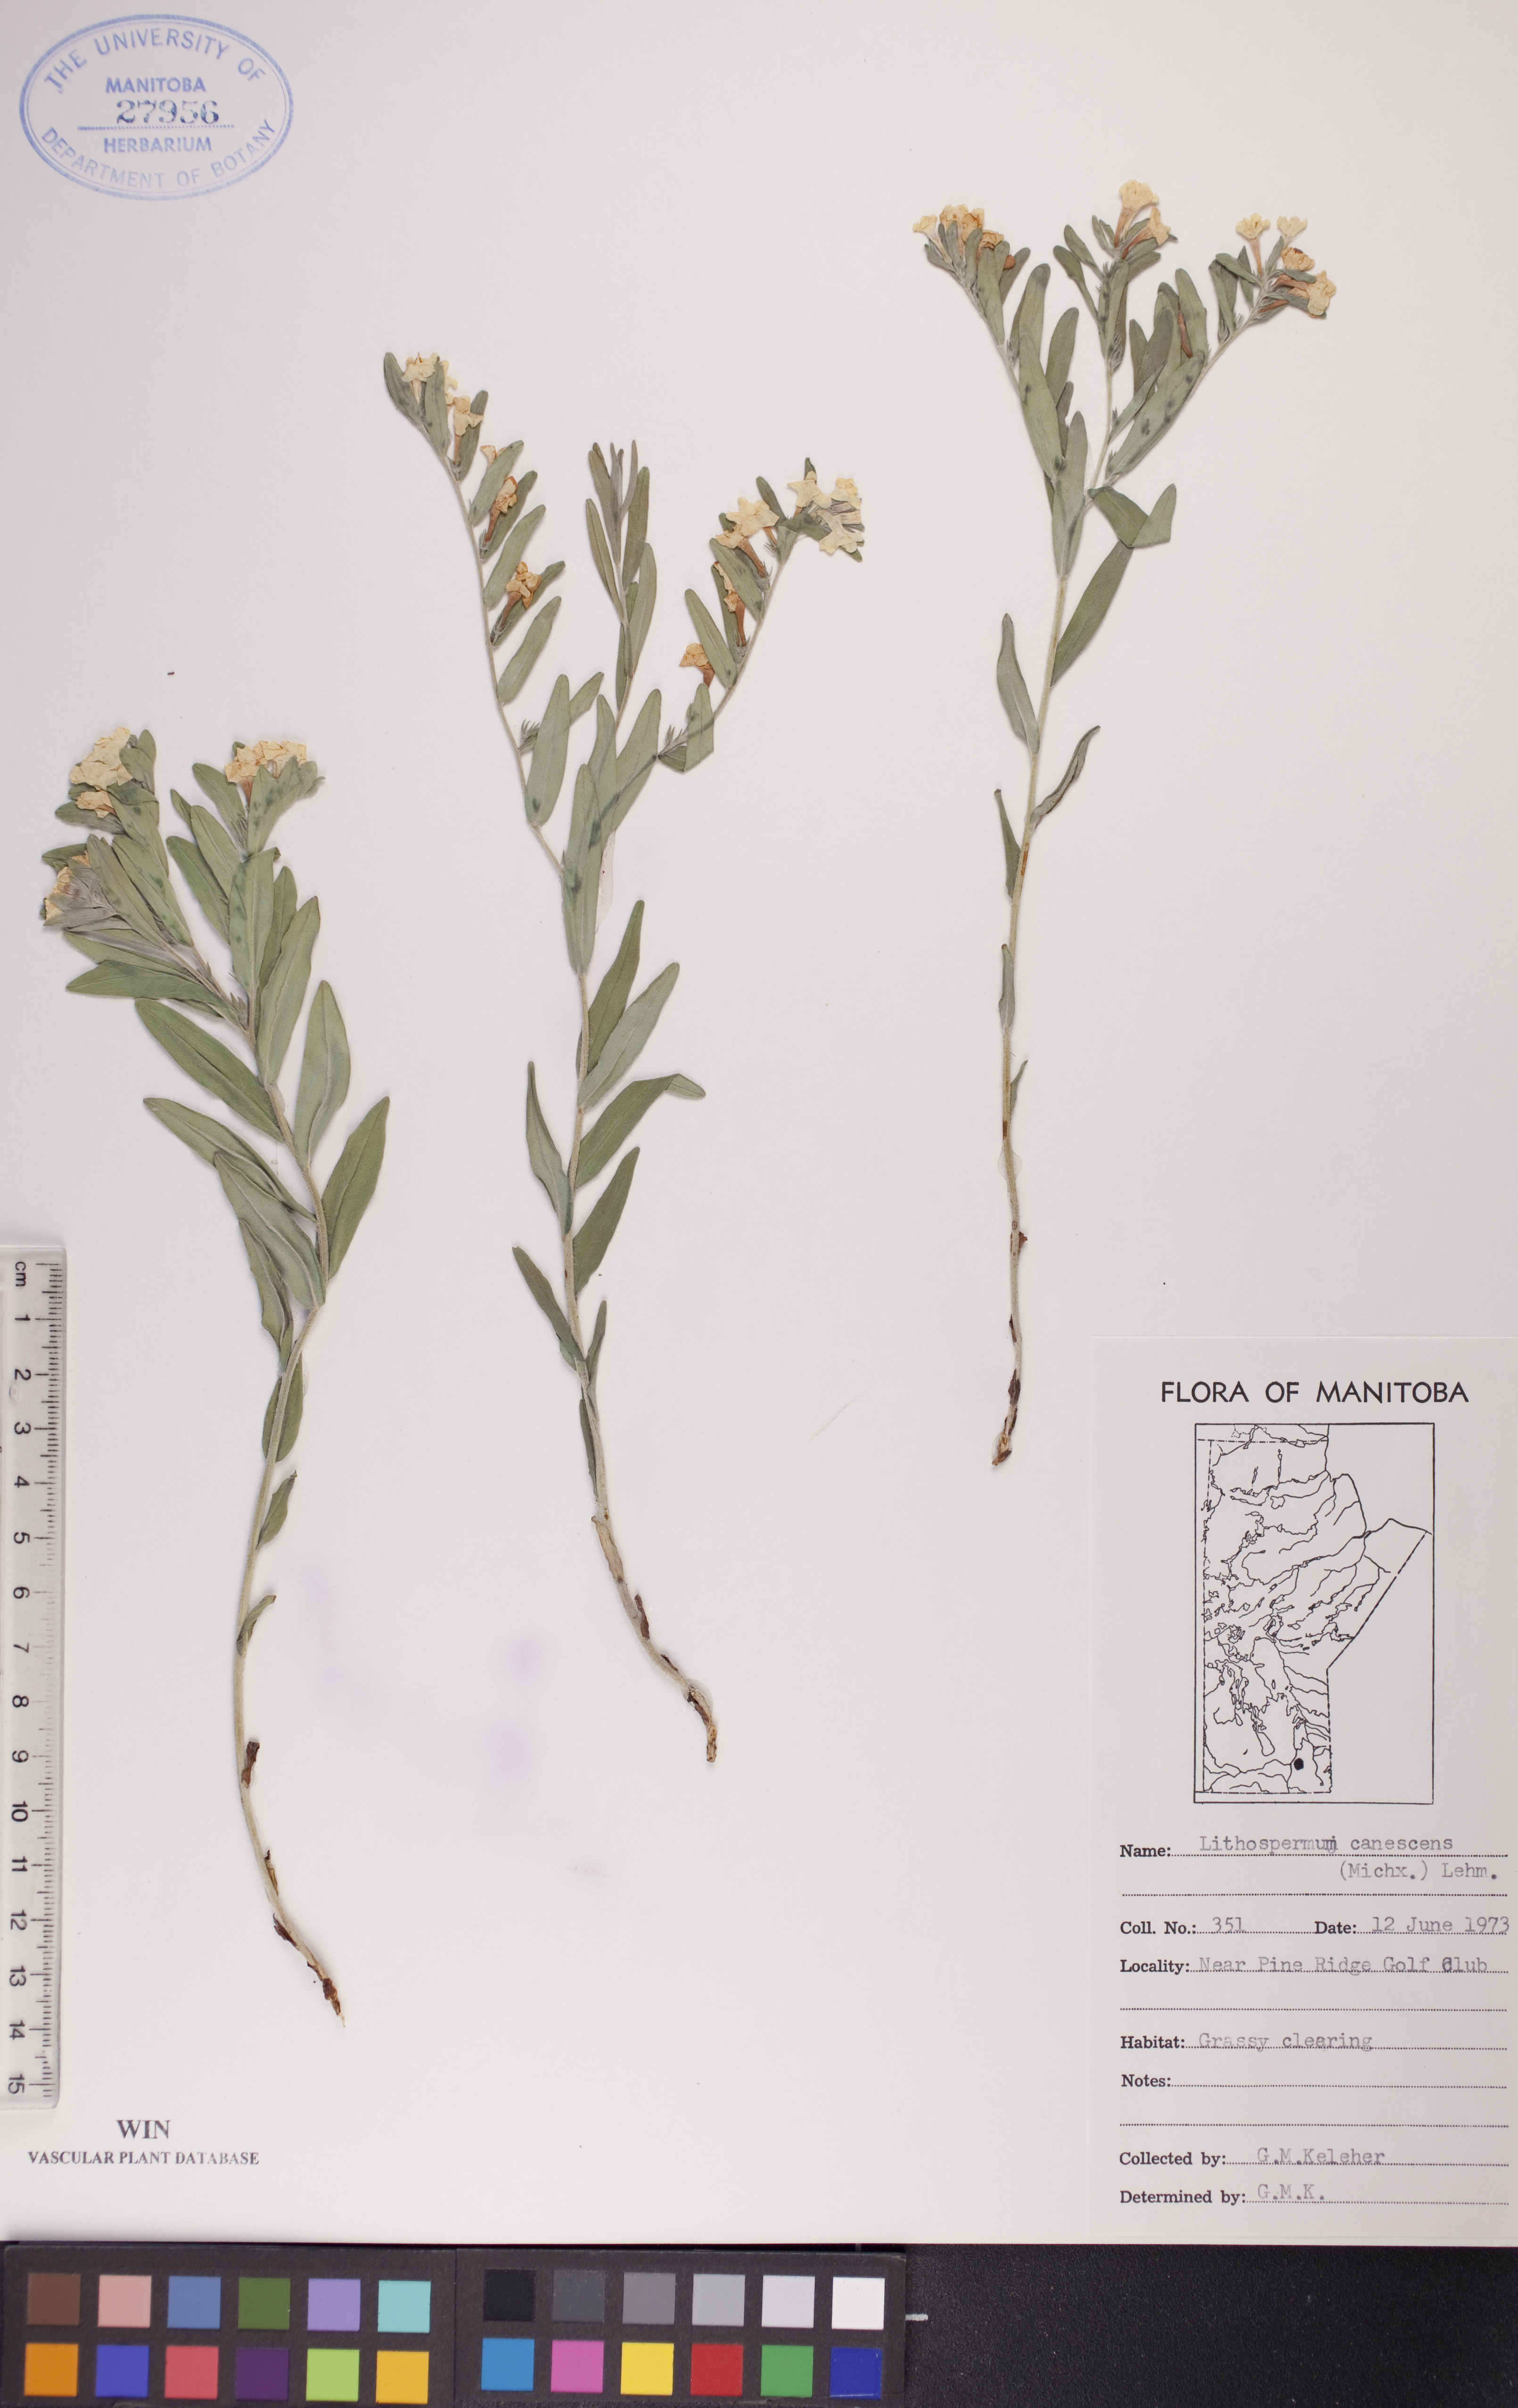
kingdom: Plantae
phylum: Tracheophyta
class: Magnoliopsida
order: Boraginales
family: Boraginaceae
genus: Lithospermum
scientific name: Lithospermum canescens
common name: Hoary puccoon
